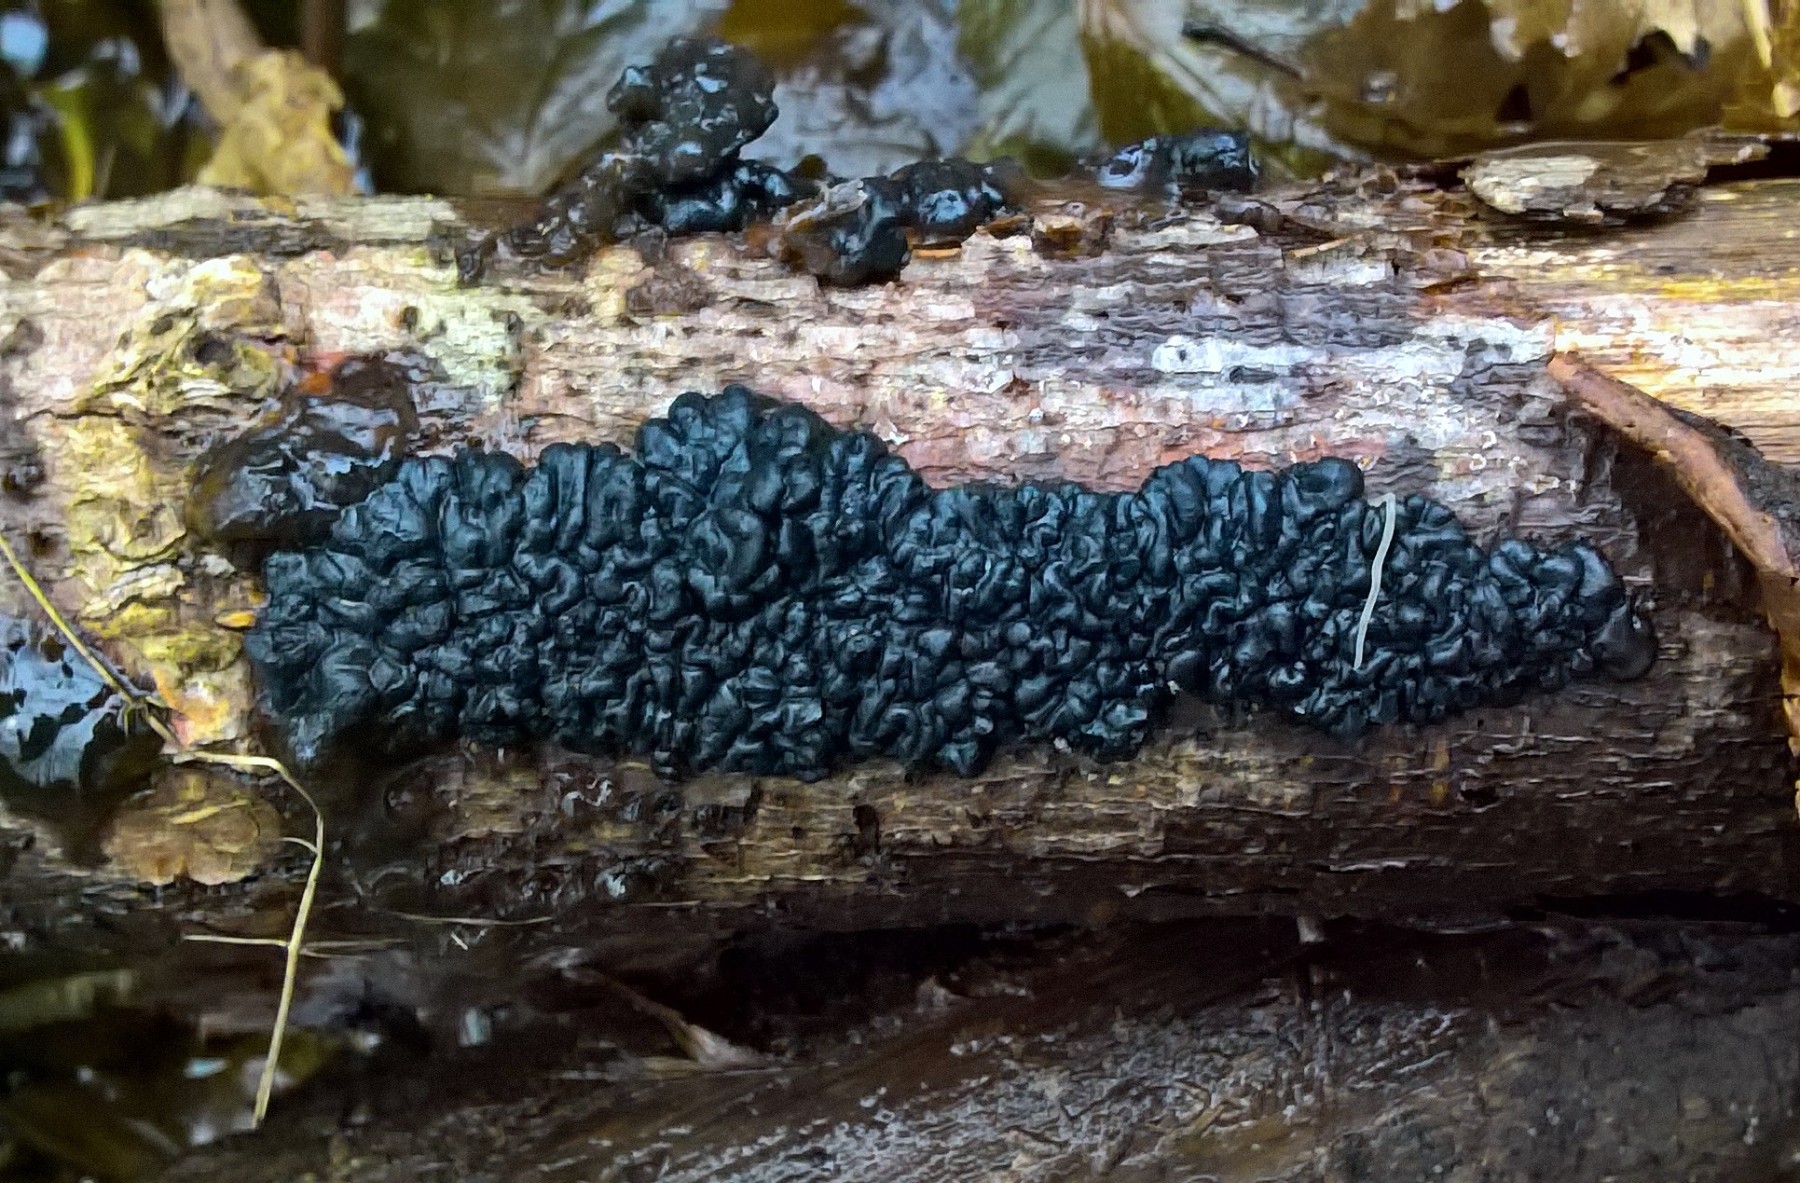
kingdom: Fungi
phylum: Basidiomycota
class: Agaricomycetes
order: Auriculariales
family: Auriculariaceae
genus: Exidia
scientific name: Exidia nigricans
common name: almindelig bævretop
